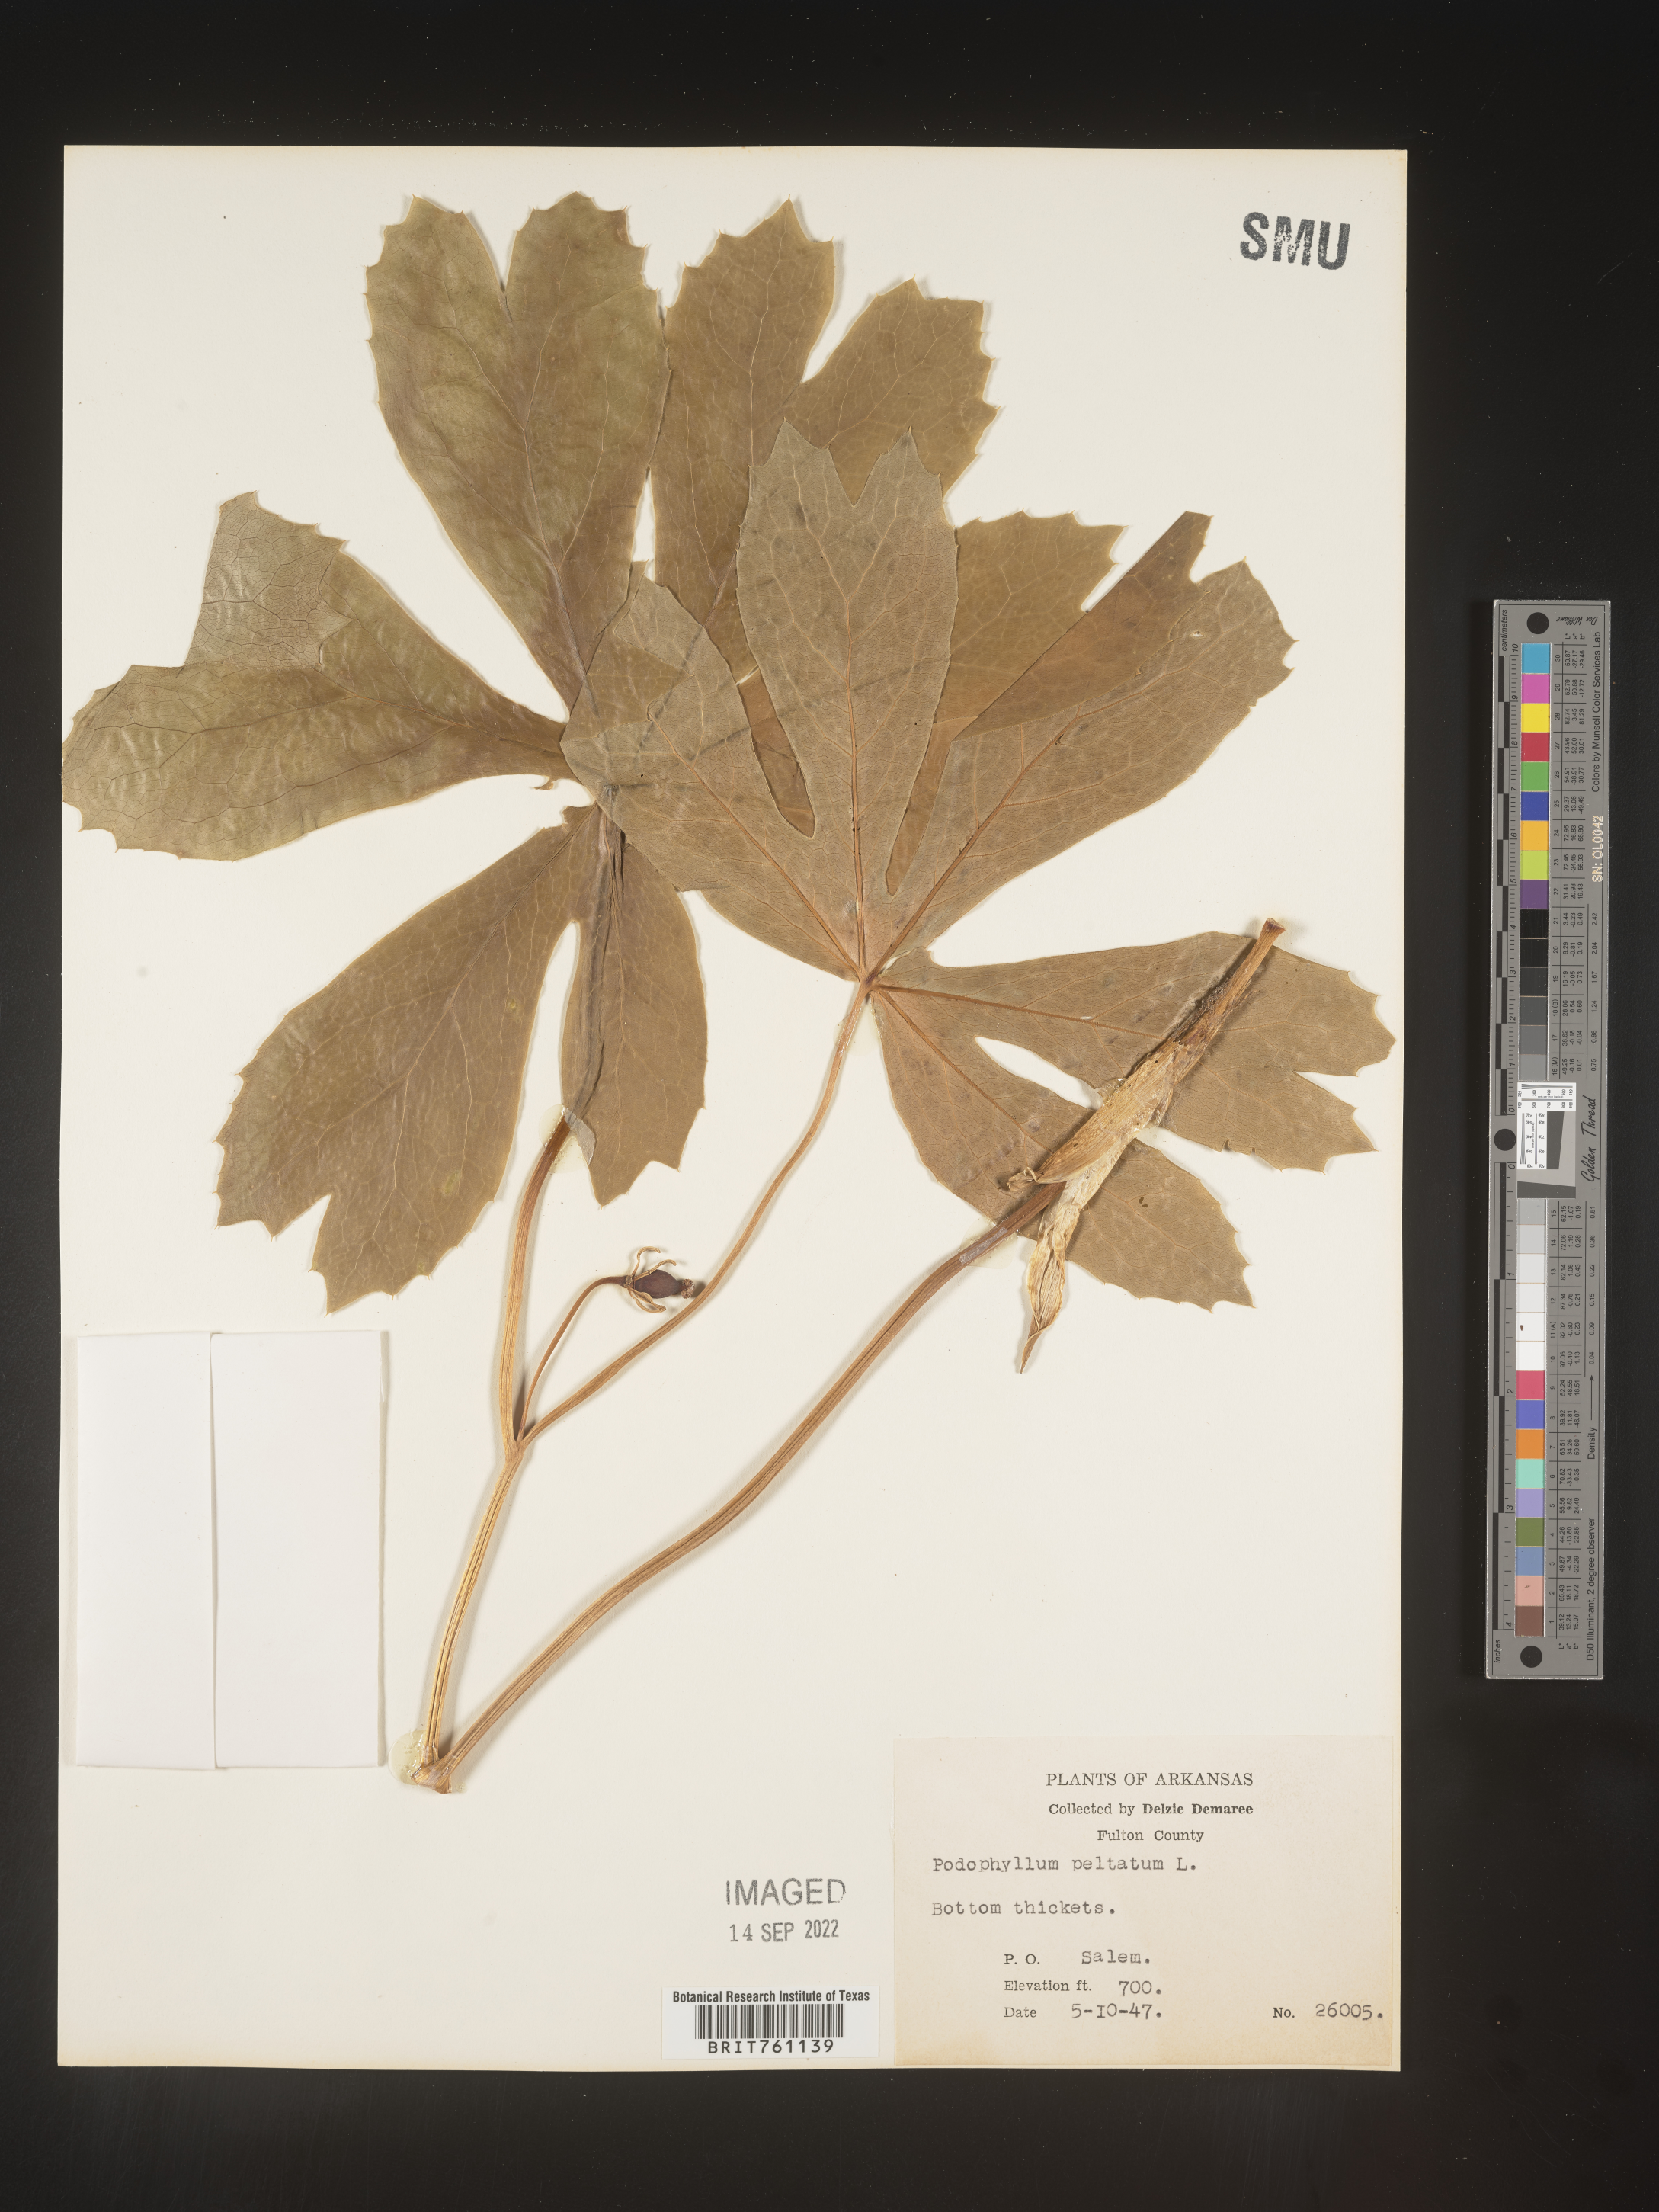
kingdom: Plantae
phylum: Tracheophyta
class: Magnoliopsida
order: Ranunculales
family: Berberidaceae
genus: Podophyllum
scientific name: Podophyllum peltatum
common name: Wild mandrake
